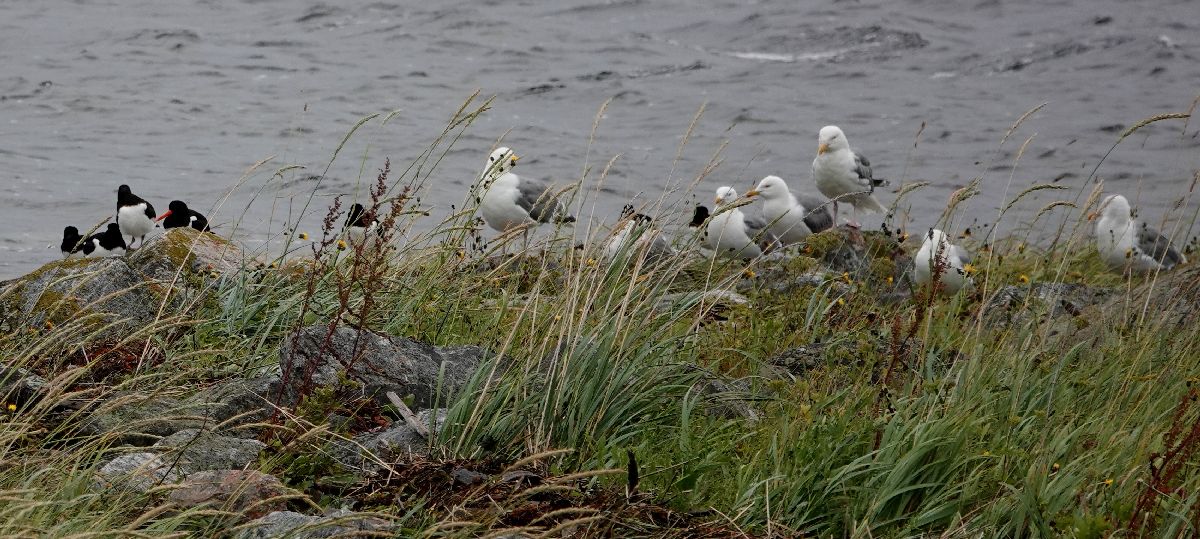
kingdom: Animalia
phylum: Chordata
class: Aves
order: Charadriiformes
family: Laridae
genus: Larus
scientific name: Larus argentatus
